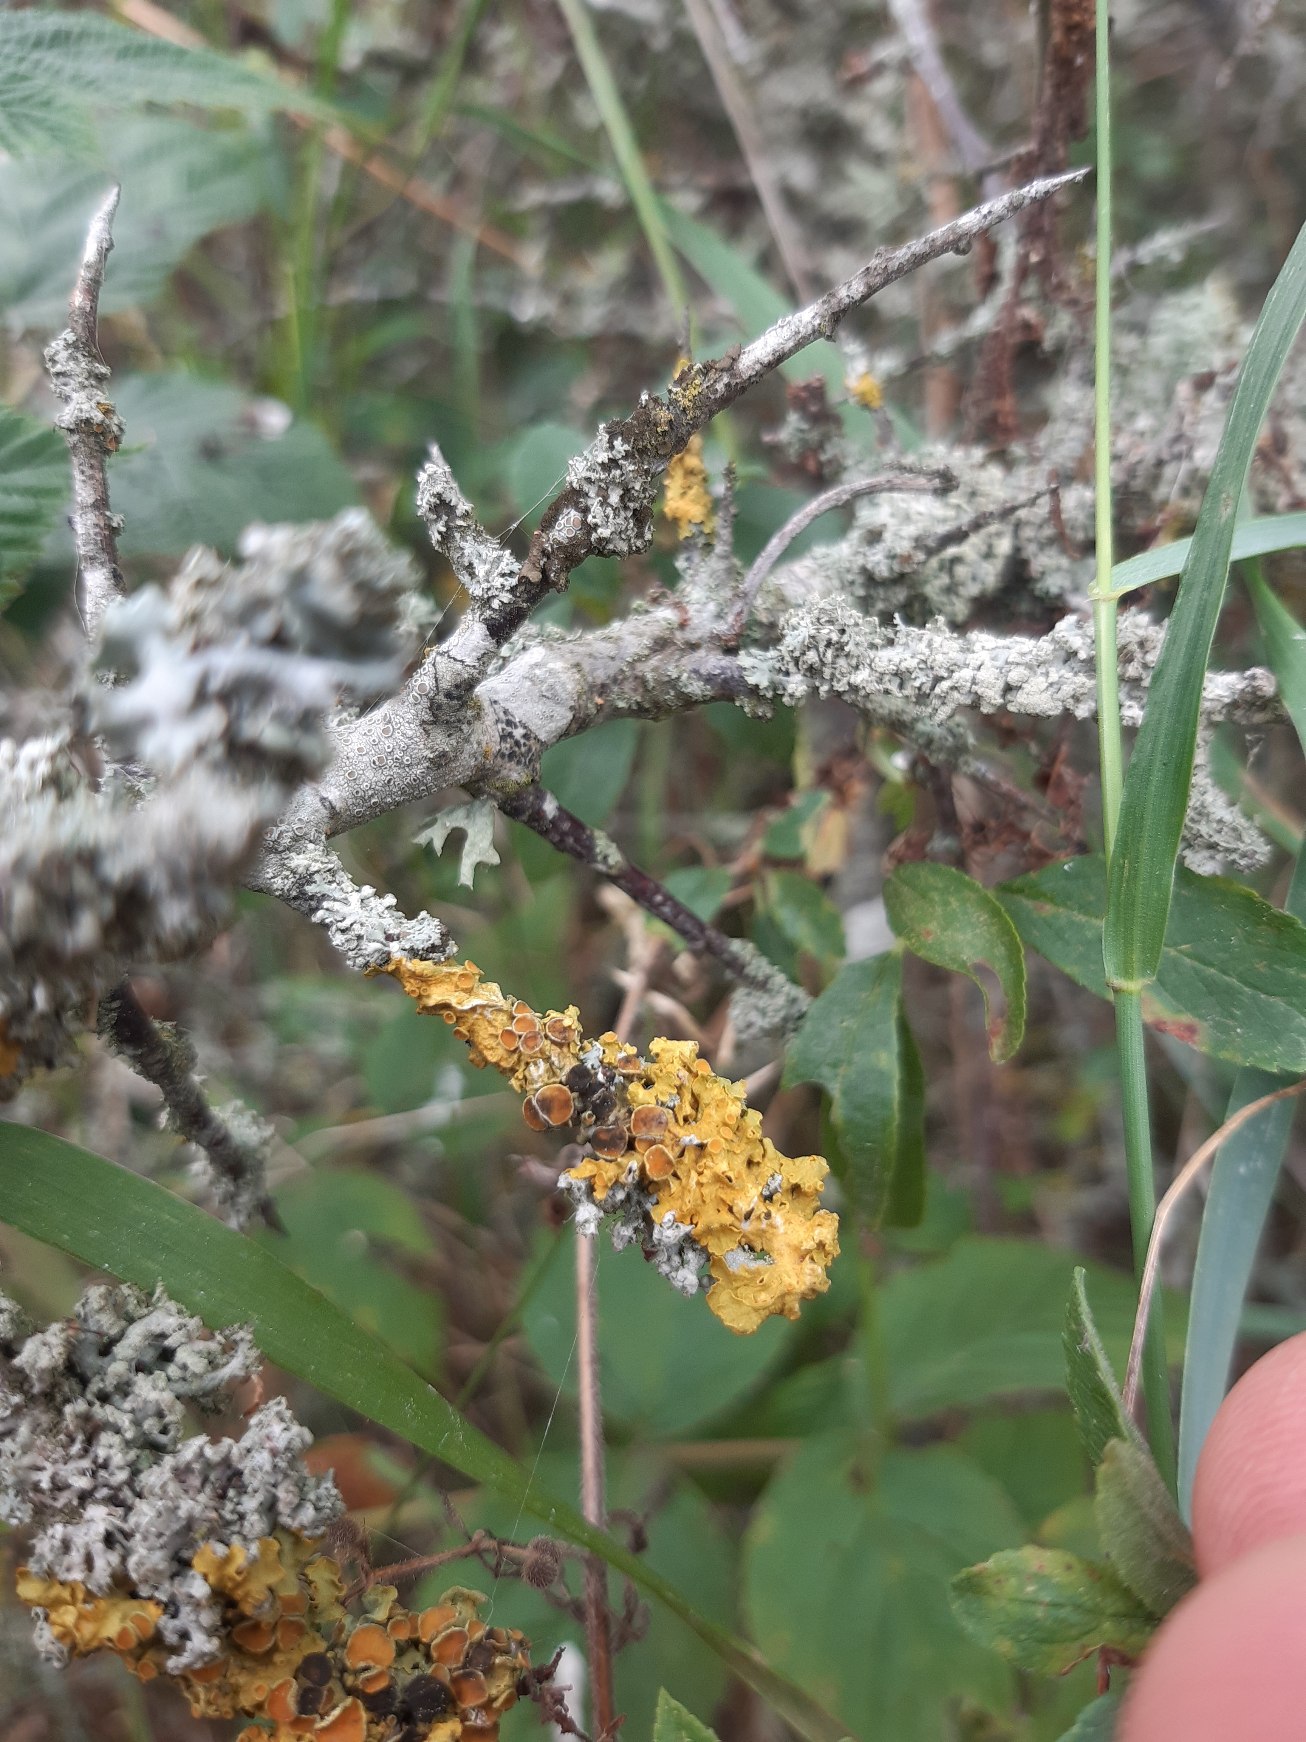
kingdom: Fungi
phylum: Ascomycota
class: Lecanoromycetes
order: Teloschistales
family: Teloschistaceae
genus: Xanthoria
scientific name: Xanthoria parietina
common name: Almindelig væggelav
